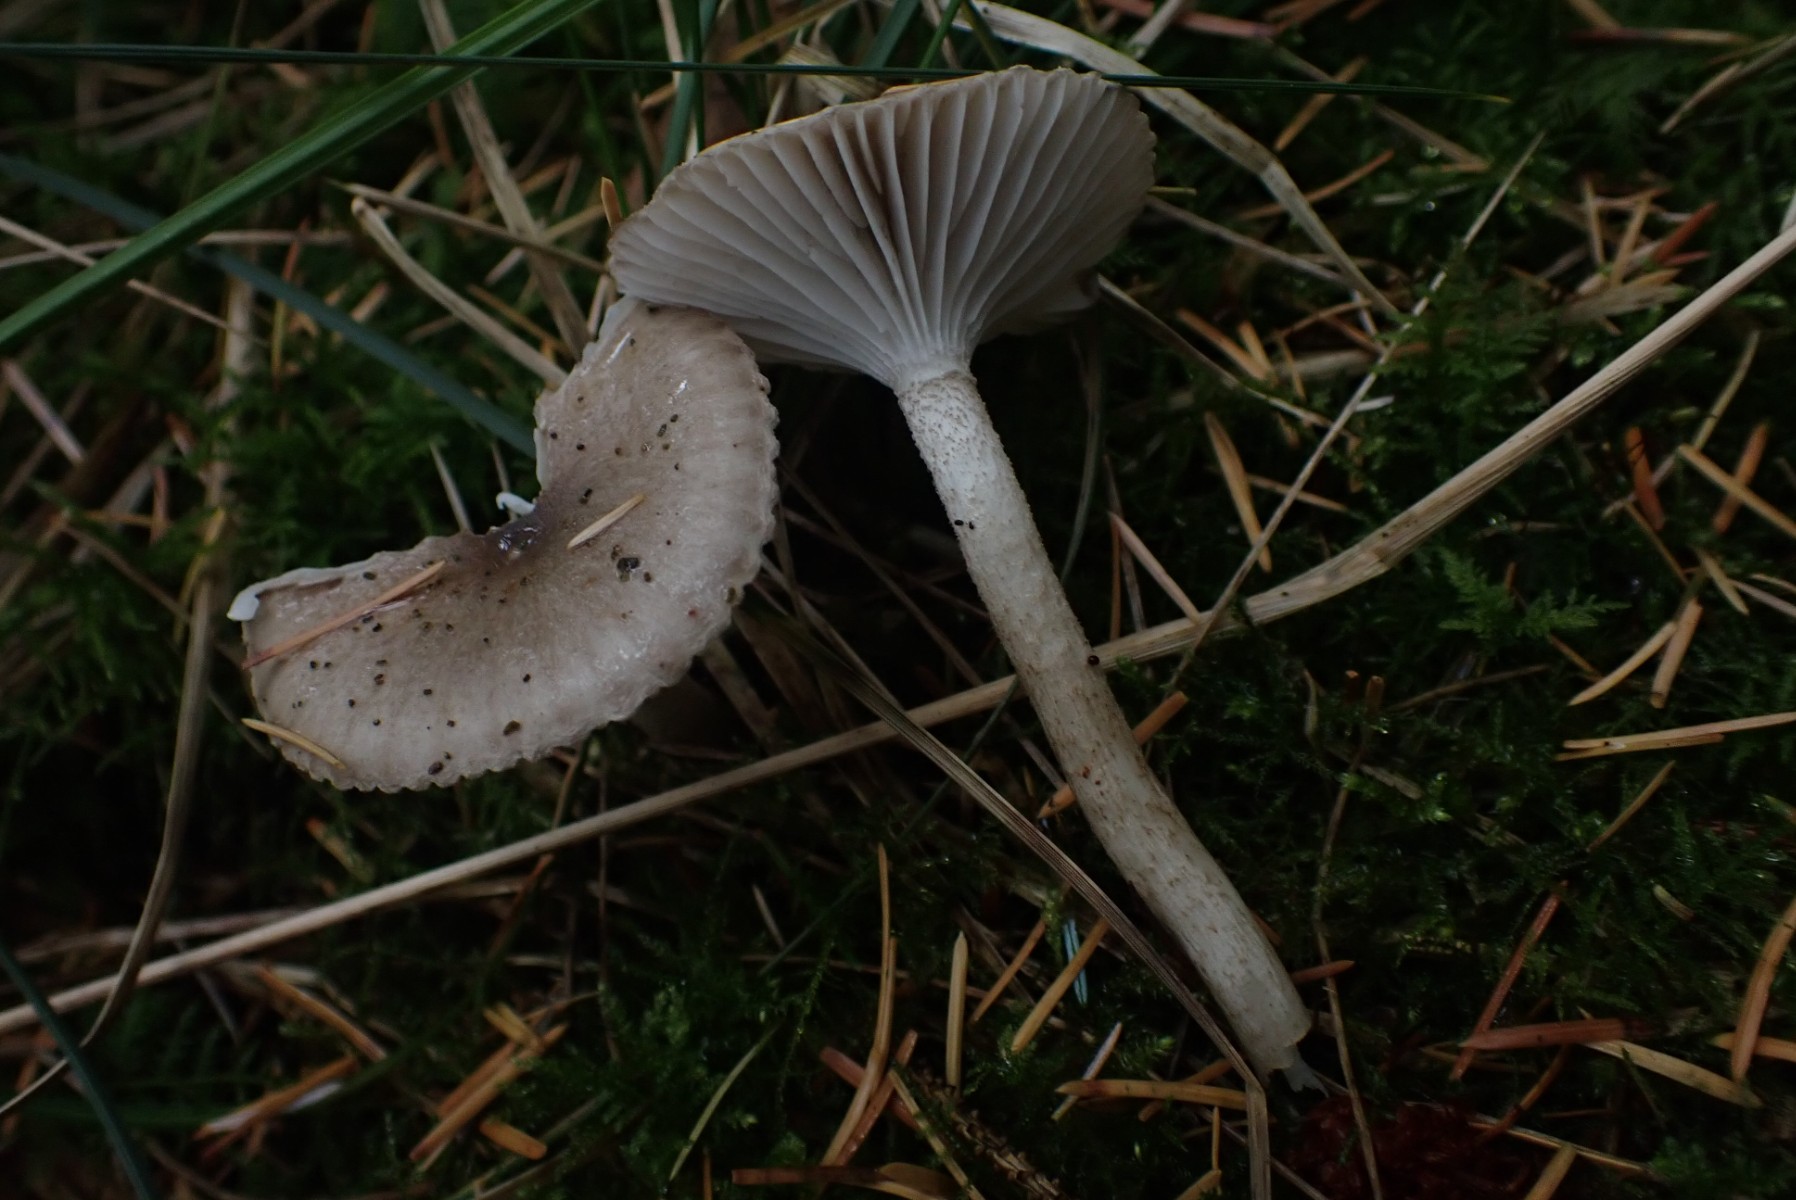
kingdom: Fungi
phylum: Basidiomycota
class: Agaricomycetes
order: Agaricales
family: Hygrophoraceae
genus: Hygrophorus
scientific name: Hygrophorus pustulatus
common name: mørkprikket sneglehat
